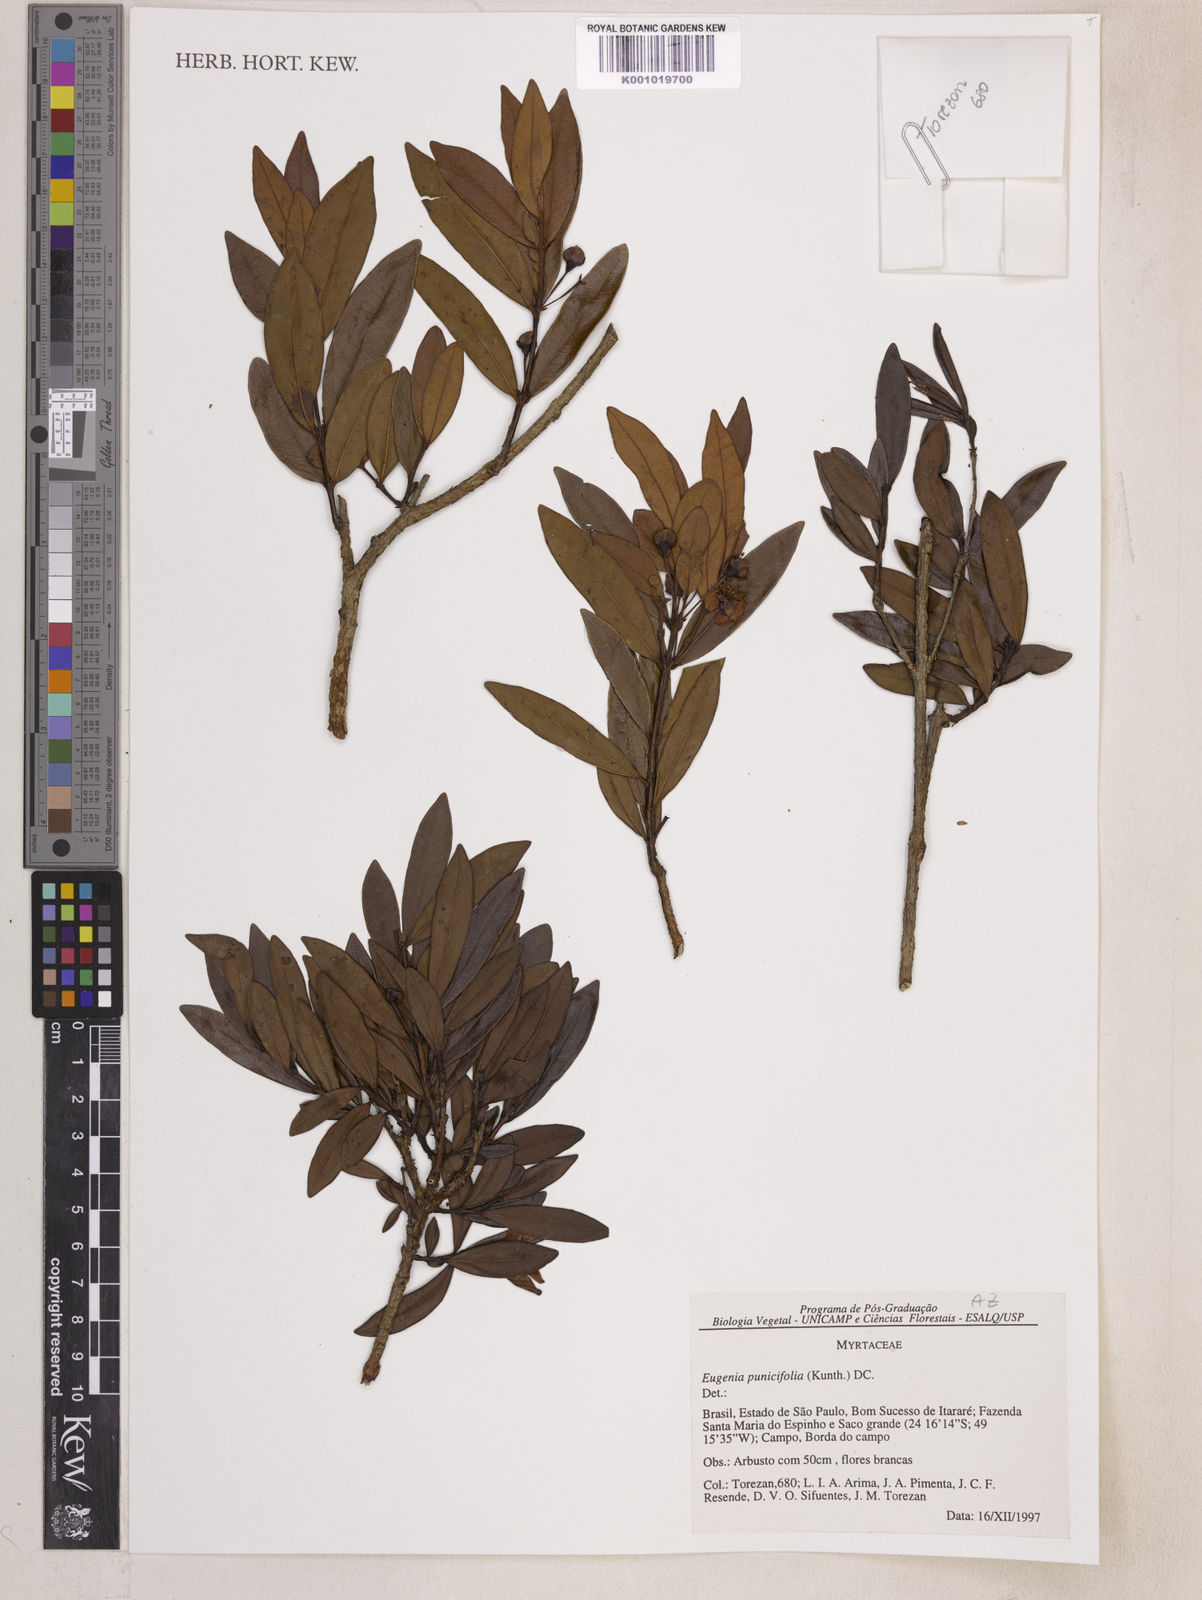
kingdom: Plantae
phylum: Tracheophyta
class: Magnoliopsida
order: Myrtales
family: Myrtaceae
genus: Eugenia
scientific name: Eugenia punicifolia
